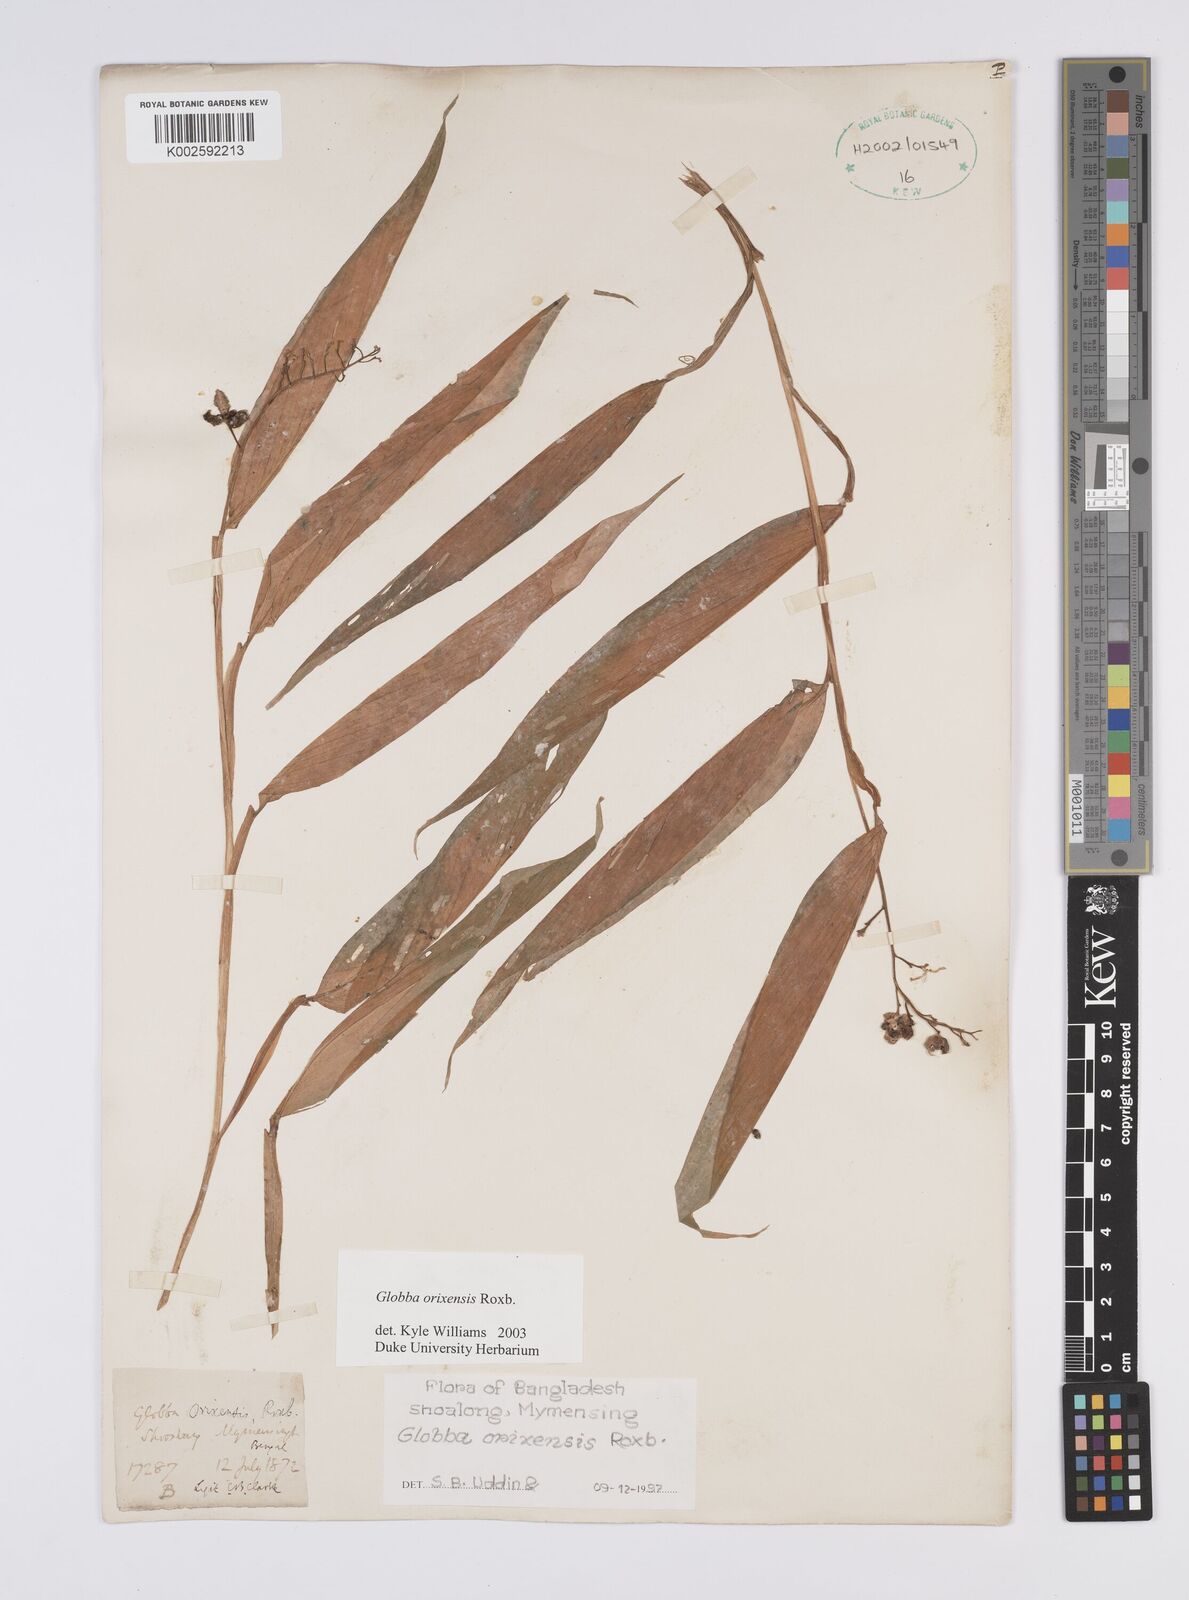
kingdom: Plantae
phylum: Tracheophyta
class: Liliopsida
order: Zingiberales
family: Zingiberaceae
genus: Globba
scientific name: Globba orixensis
